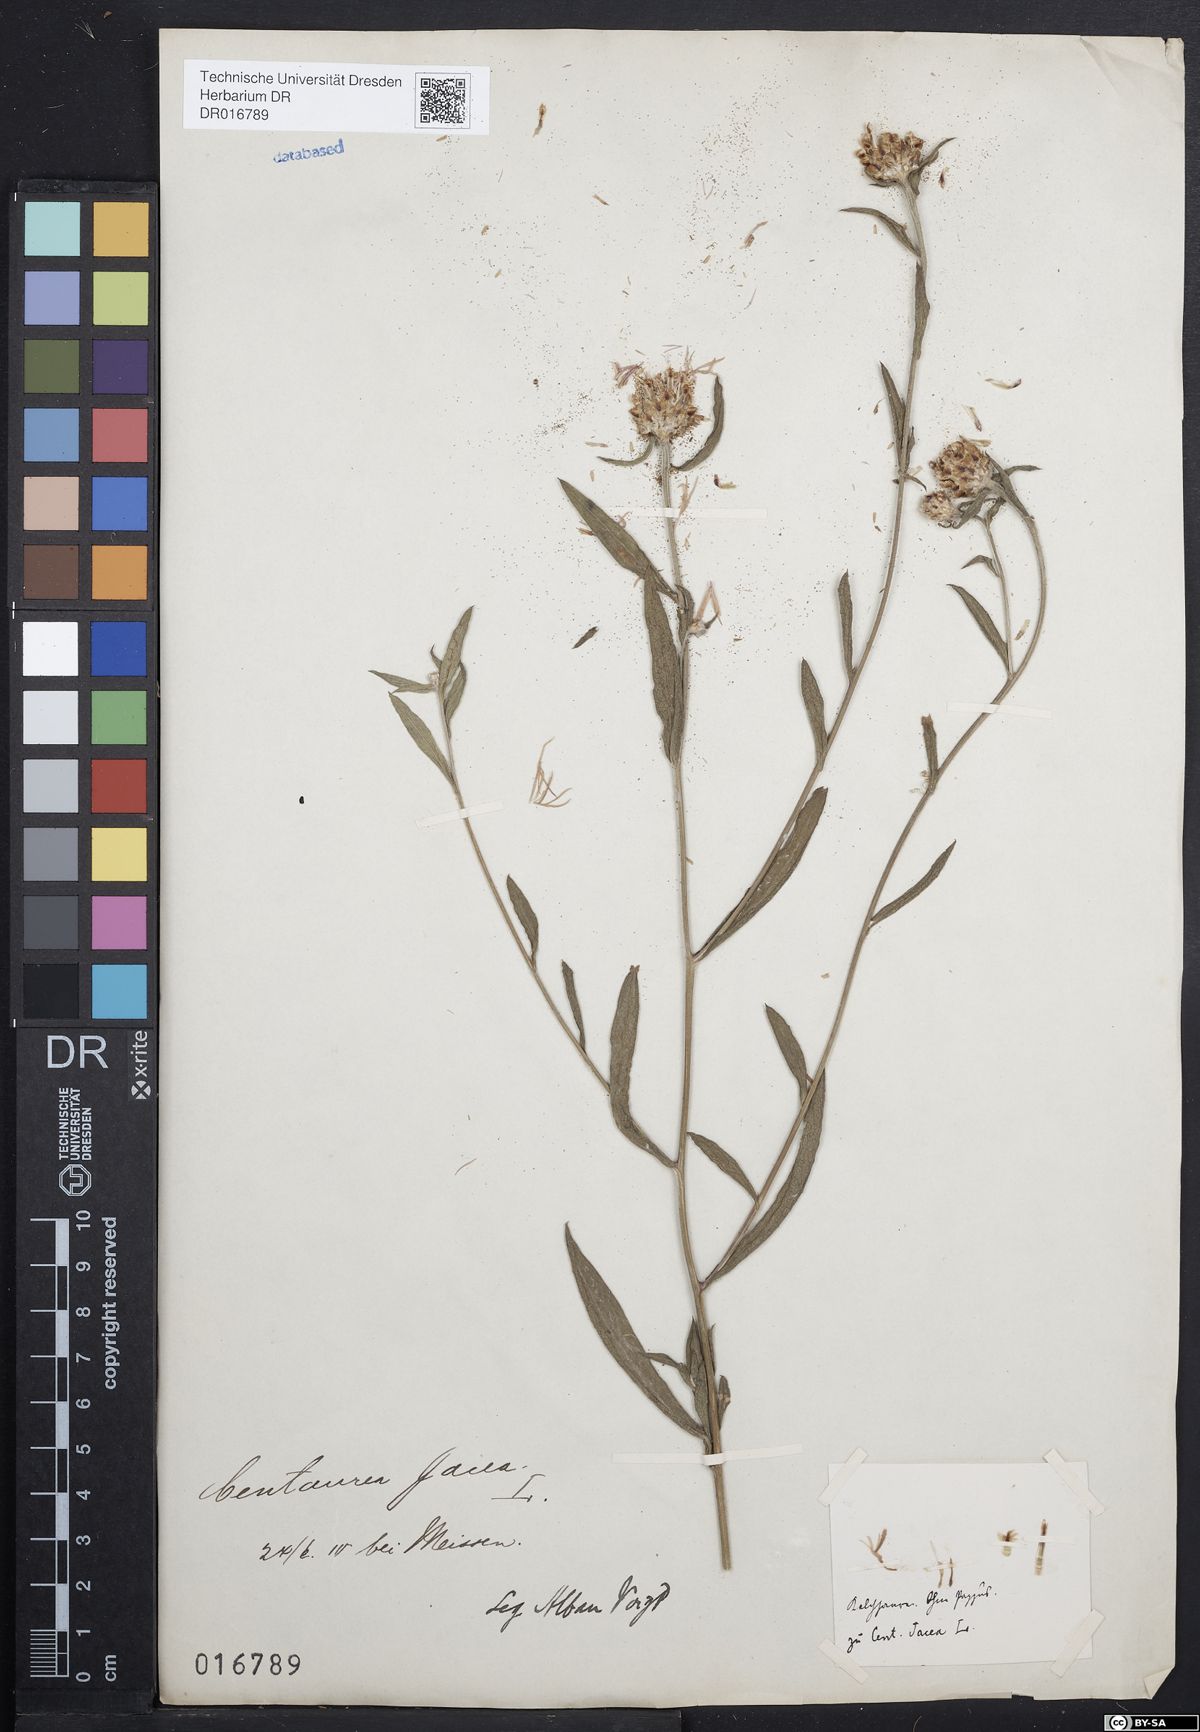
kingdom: Plantae
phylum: Tracheophyta
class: Magnoliopsida
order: Asterales
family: Asteraceae
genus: Centaurea
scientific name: Centaurea jacea
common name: Brown knapweed
